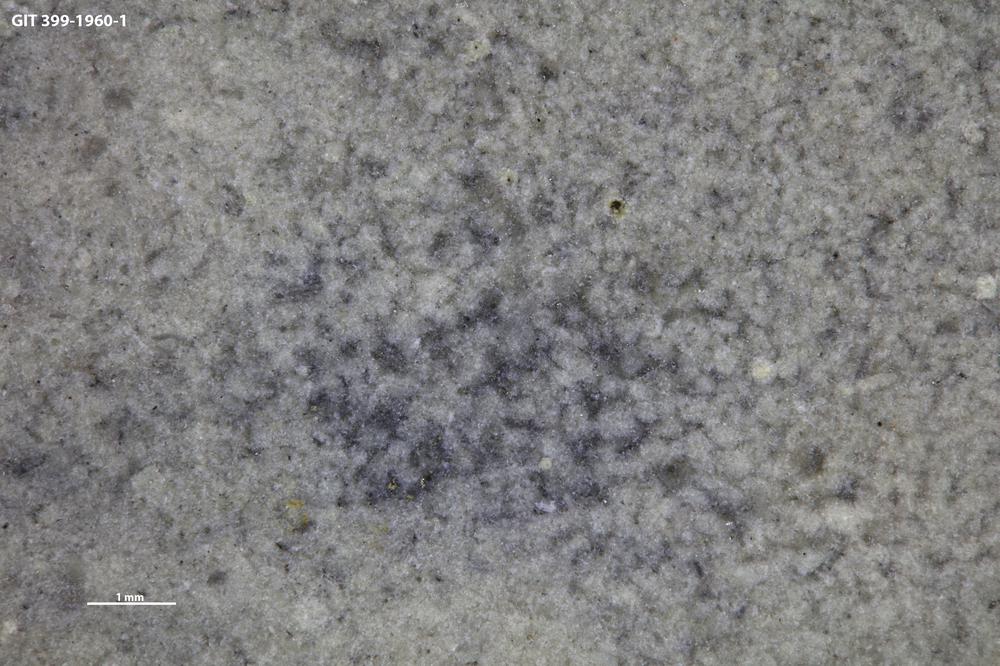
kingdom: Animalia
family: Coprulidae
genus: Coprulus
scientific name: Coprulus
